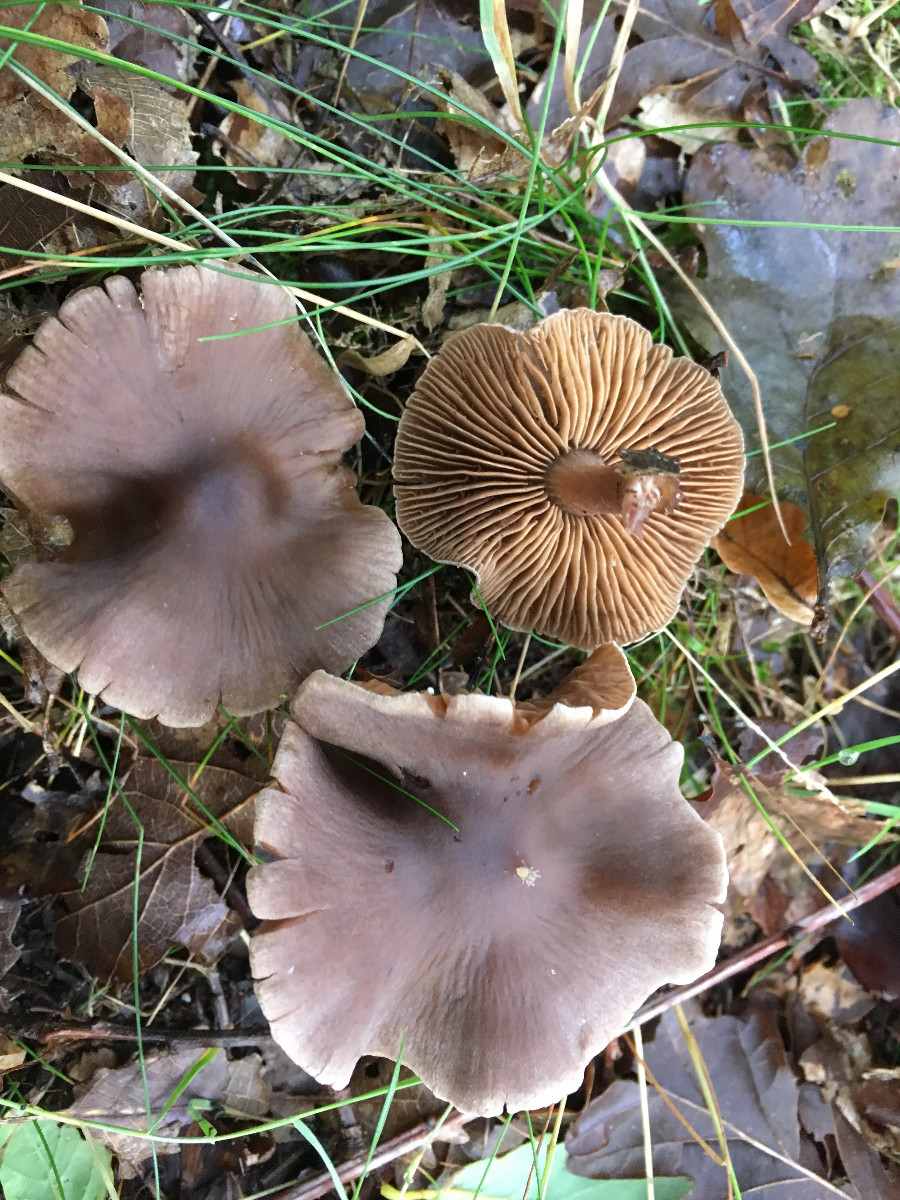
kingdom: Fungi
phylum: Basidiomycota
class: Agaricomycetes
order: Agaricales
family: Cortinariaceae
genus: Cortinarius
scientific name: Cortinarius
